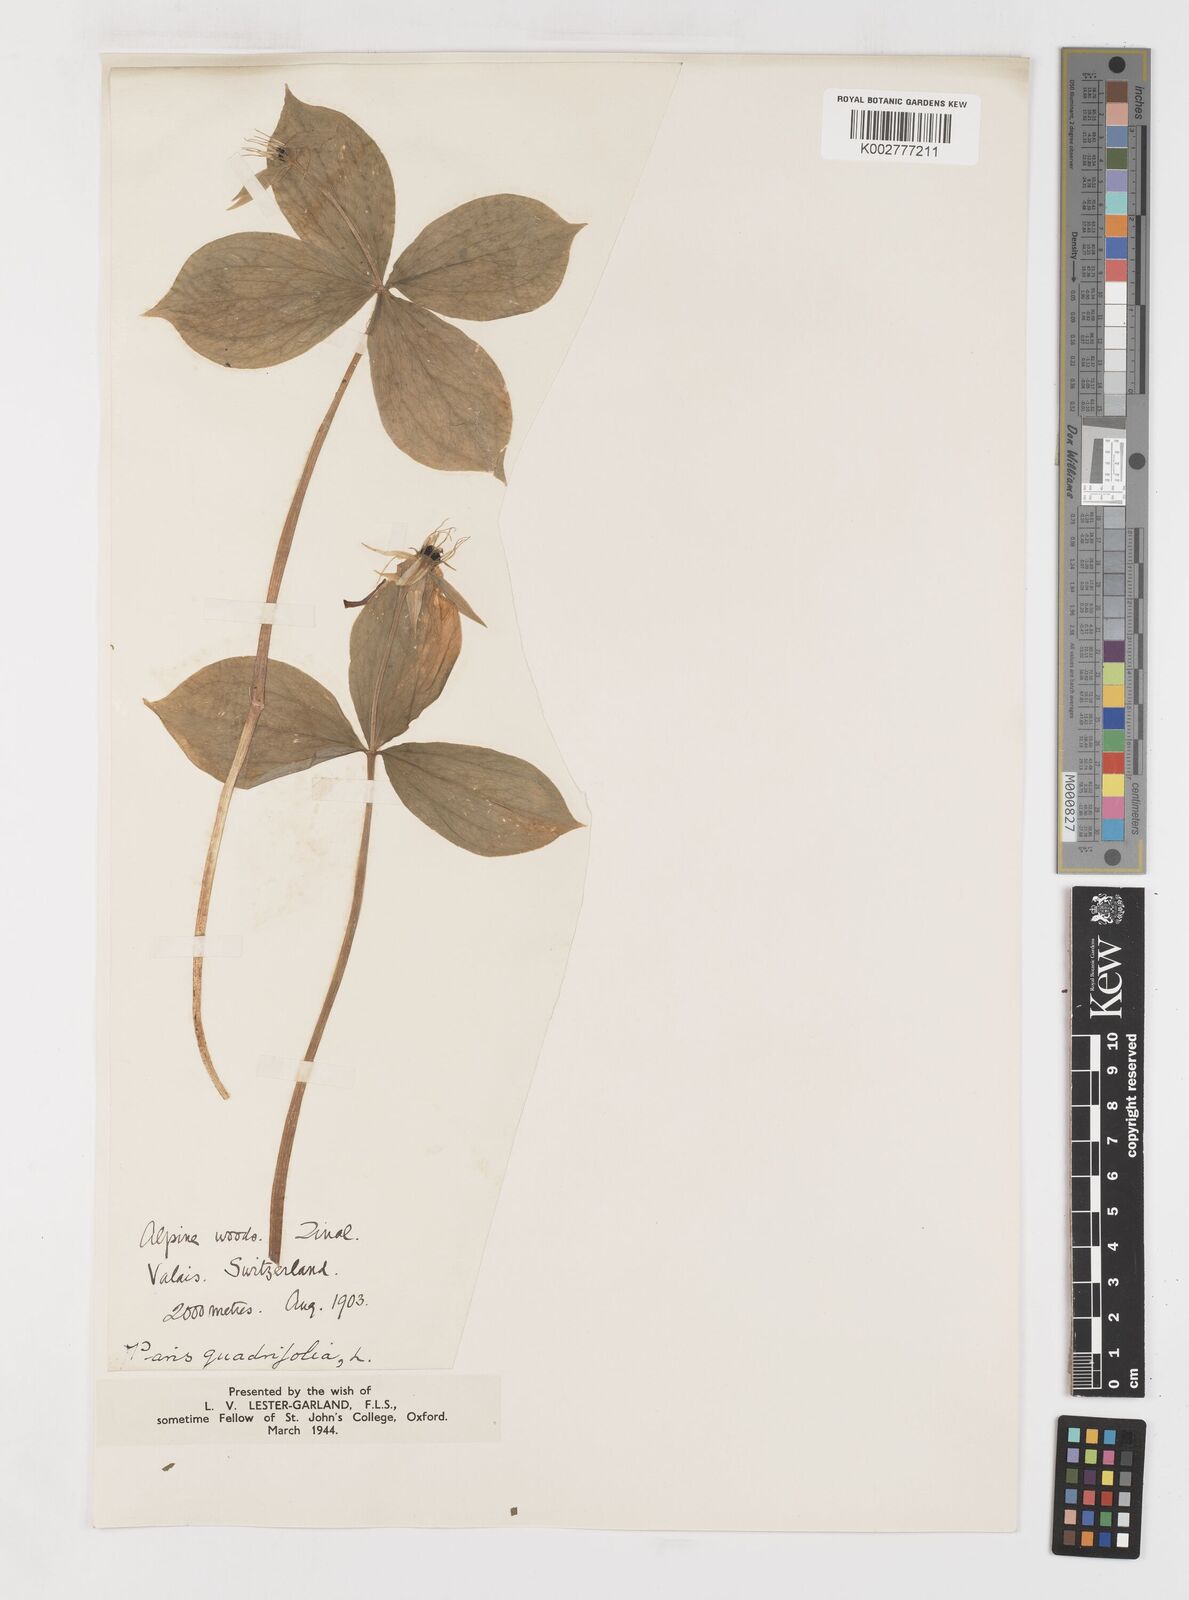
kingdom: Plantae
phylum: Tracheophyta
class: Liliopsida
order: Liliales
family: Melanthiaceae
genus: Paris
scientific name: Paris quadrifolia
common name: Herb-paris
